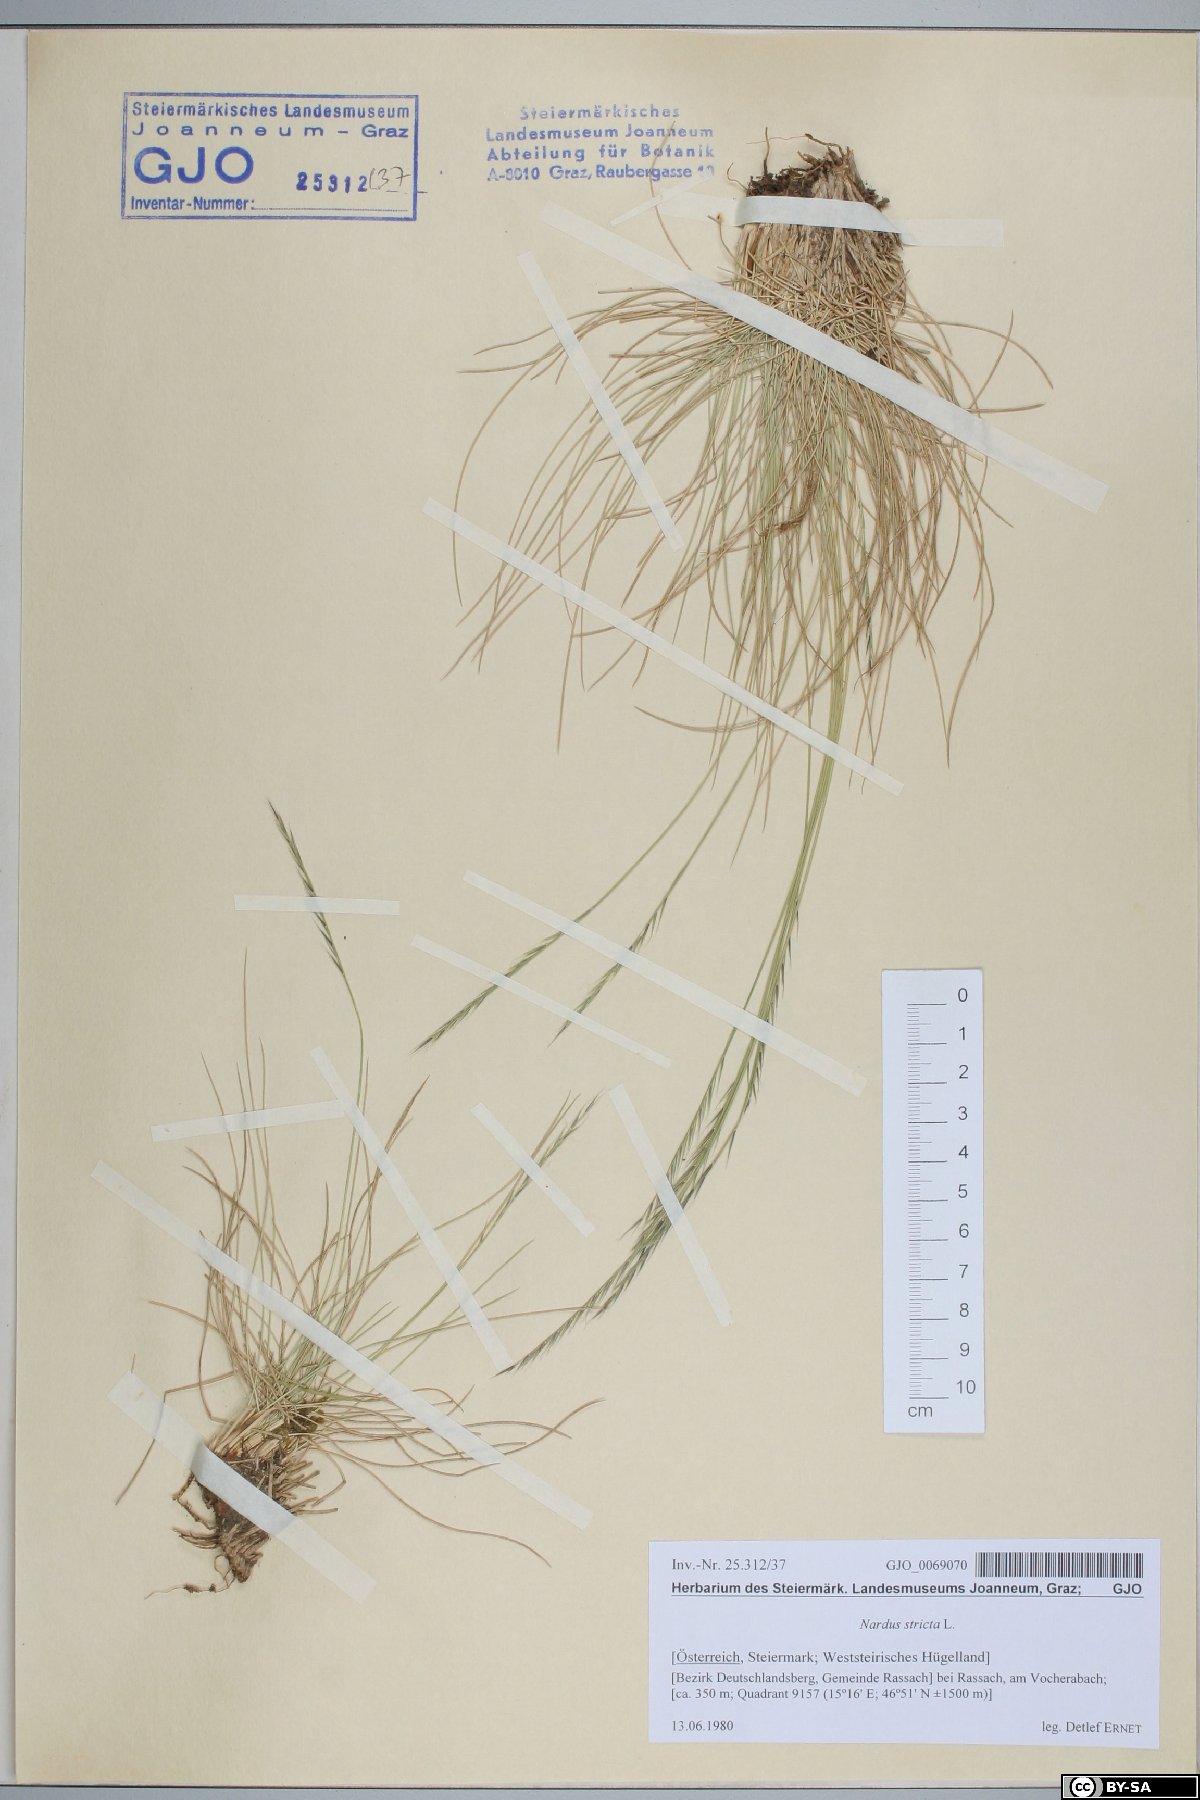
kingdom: Plantae
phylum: Tracheophyta
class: Liliopsida
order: Poales
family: Poaceae
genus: Nardus
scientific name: Nardus stricta
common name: Mat-grass
